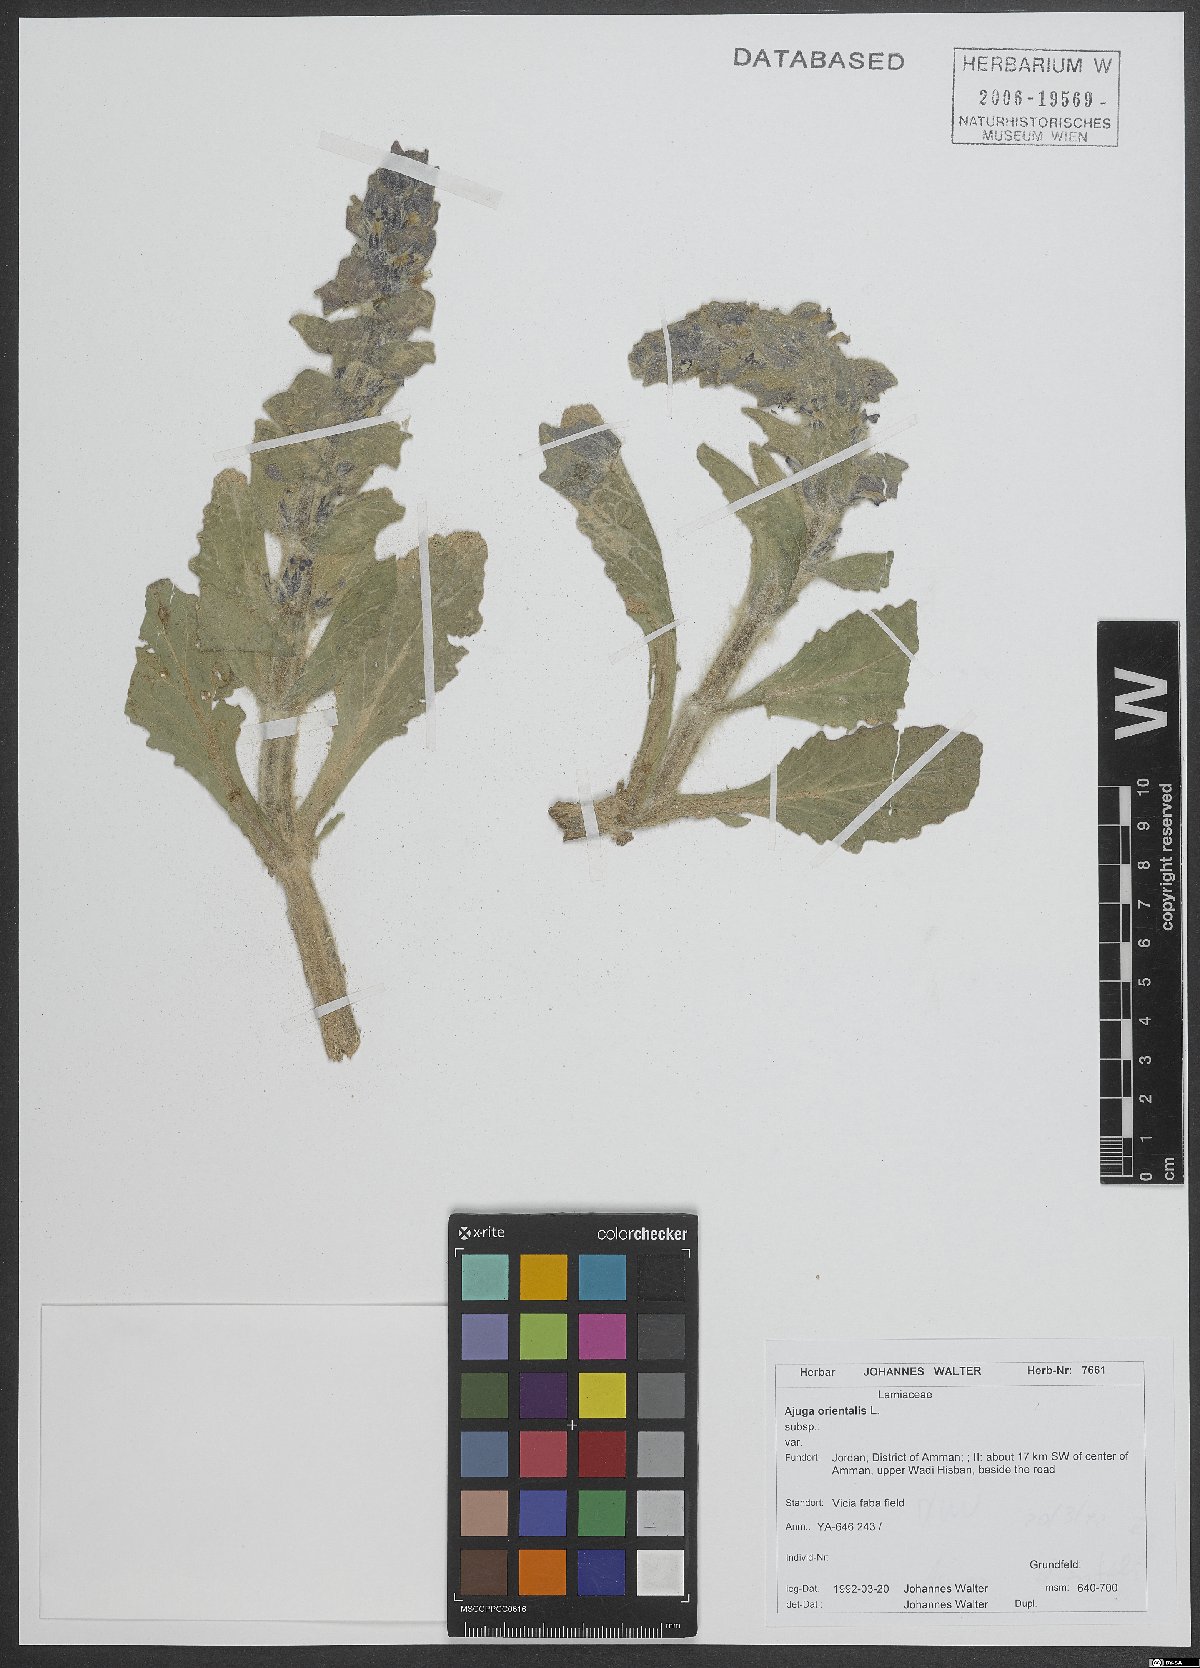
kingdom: Plantae
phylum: Tracheophyta
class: Magnoliopsida
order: Lamiales
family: Lamiaceae
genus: Ajuga
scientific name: Ajuga orientalis
